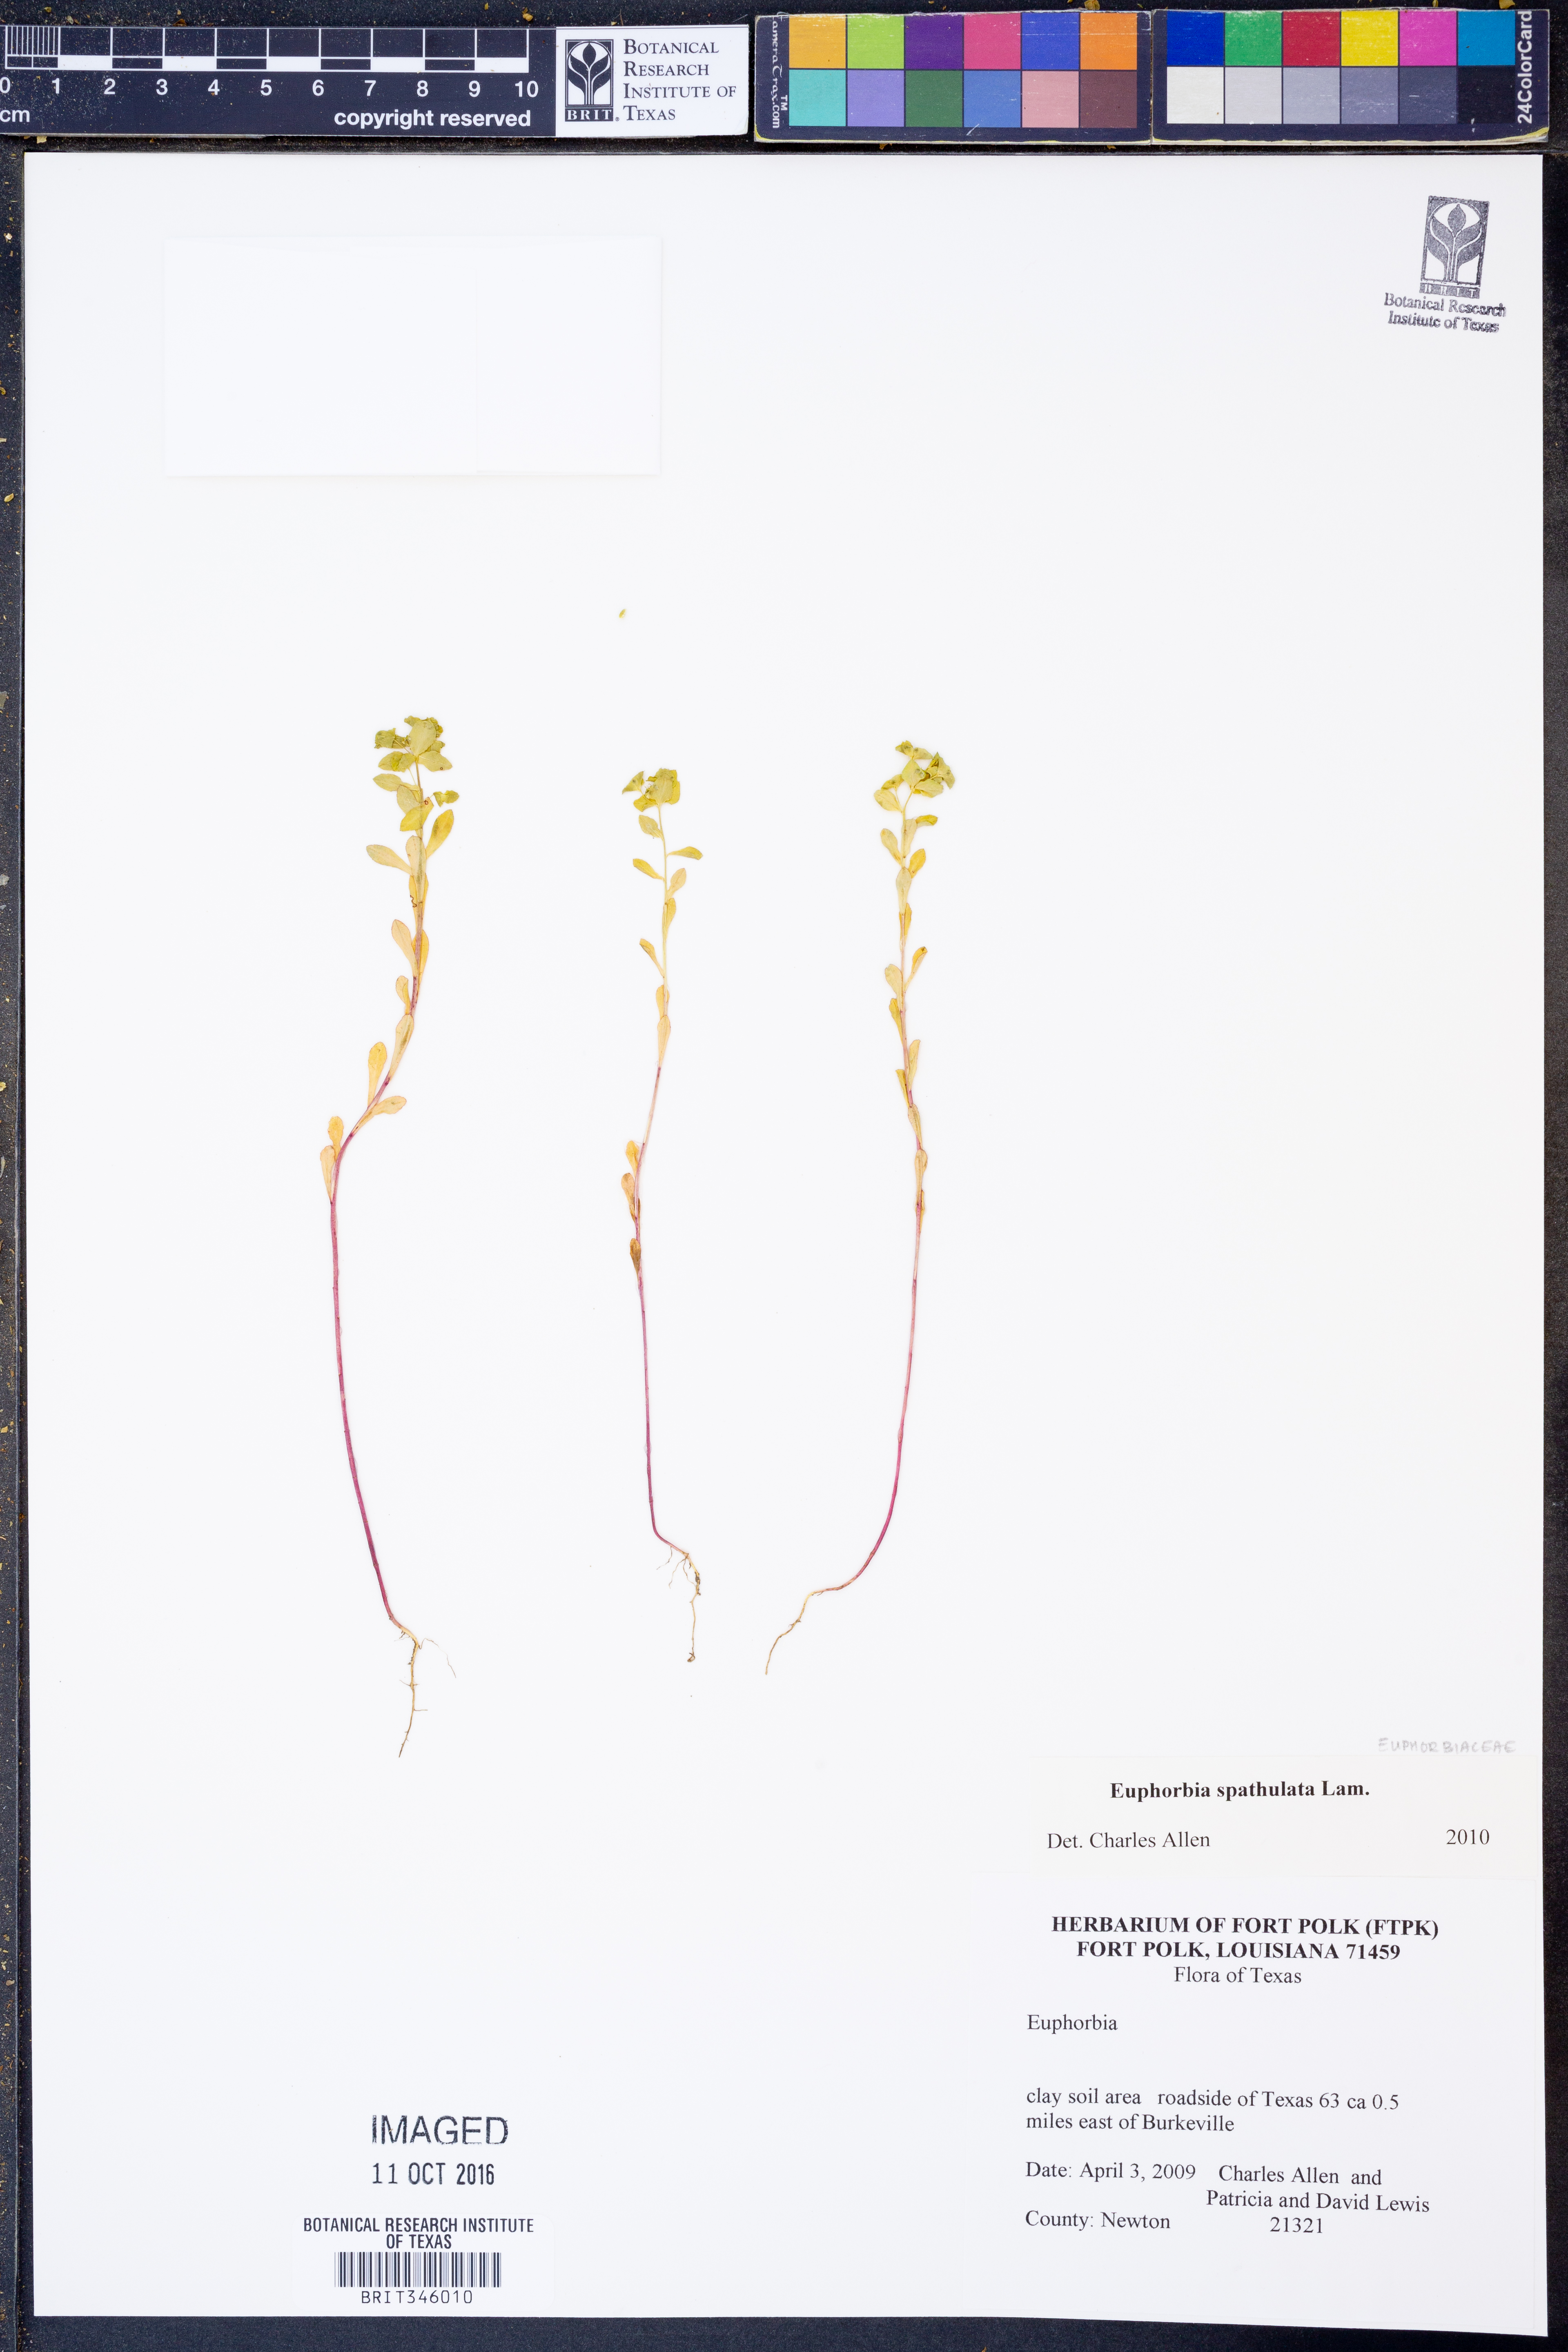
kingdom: Plantae
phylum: Tracheophyta
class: Magnoliopsida
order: Malpighiales
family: Euphorbiaceae
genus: Euphorbia
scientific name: Euphorbia spathulata
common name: Blunt spurge
